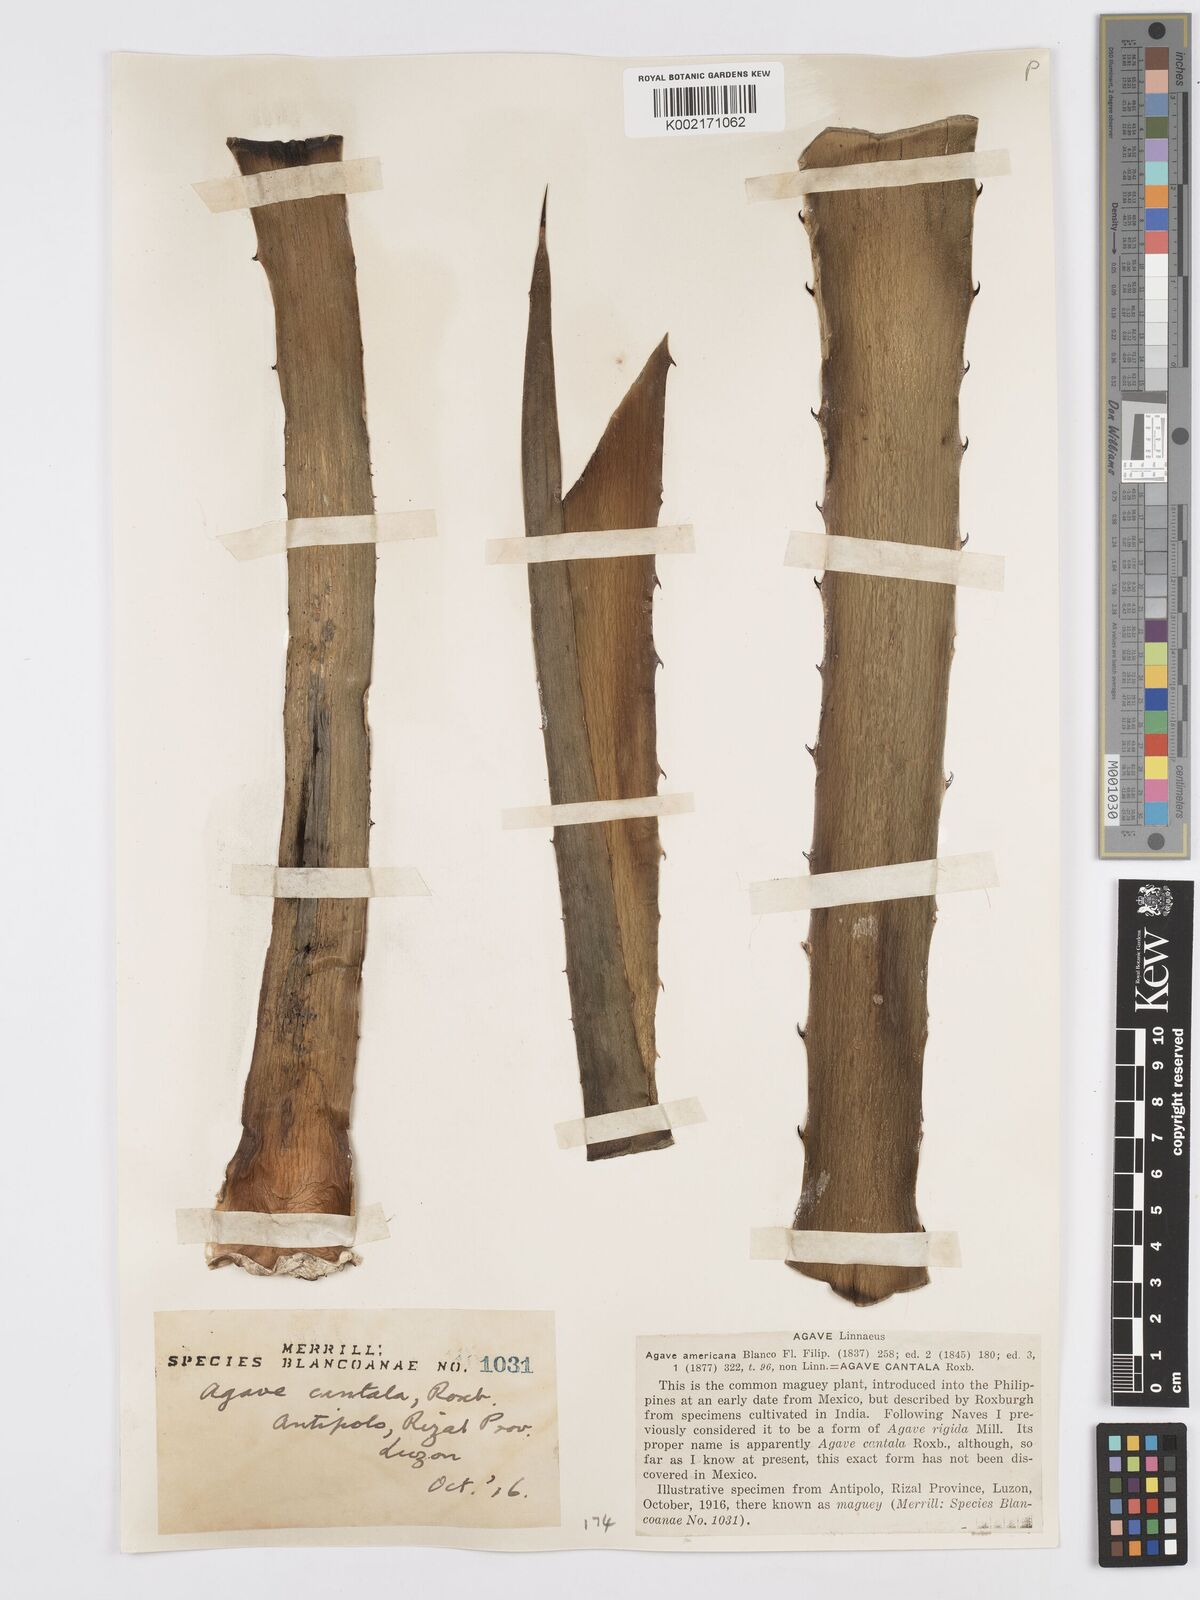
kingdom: Plantae
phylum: Tracheophyta
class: Liliopsida
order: Asparagales
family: Asparagaceae
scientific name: Asparagaceae
